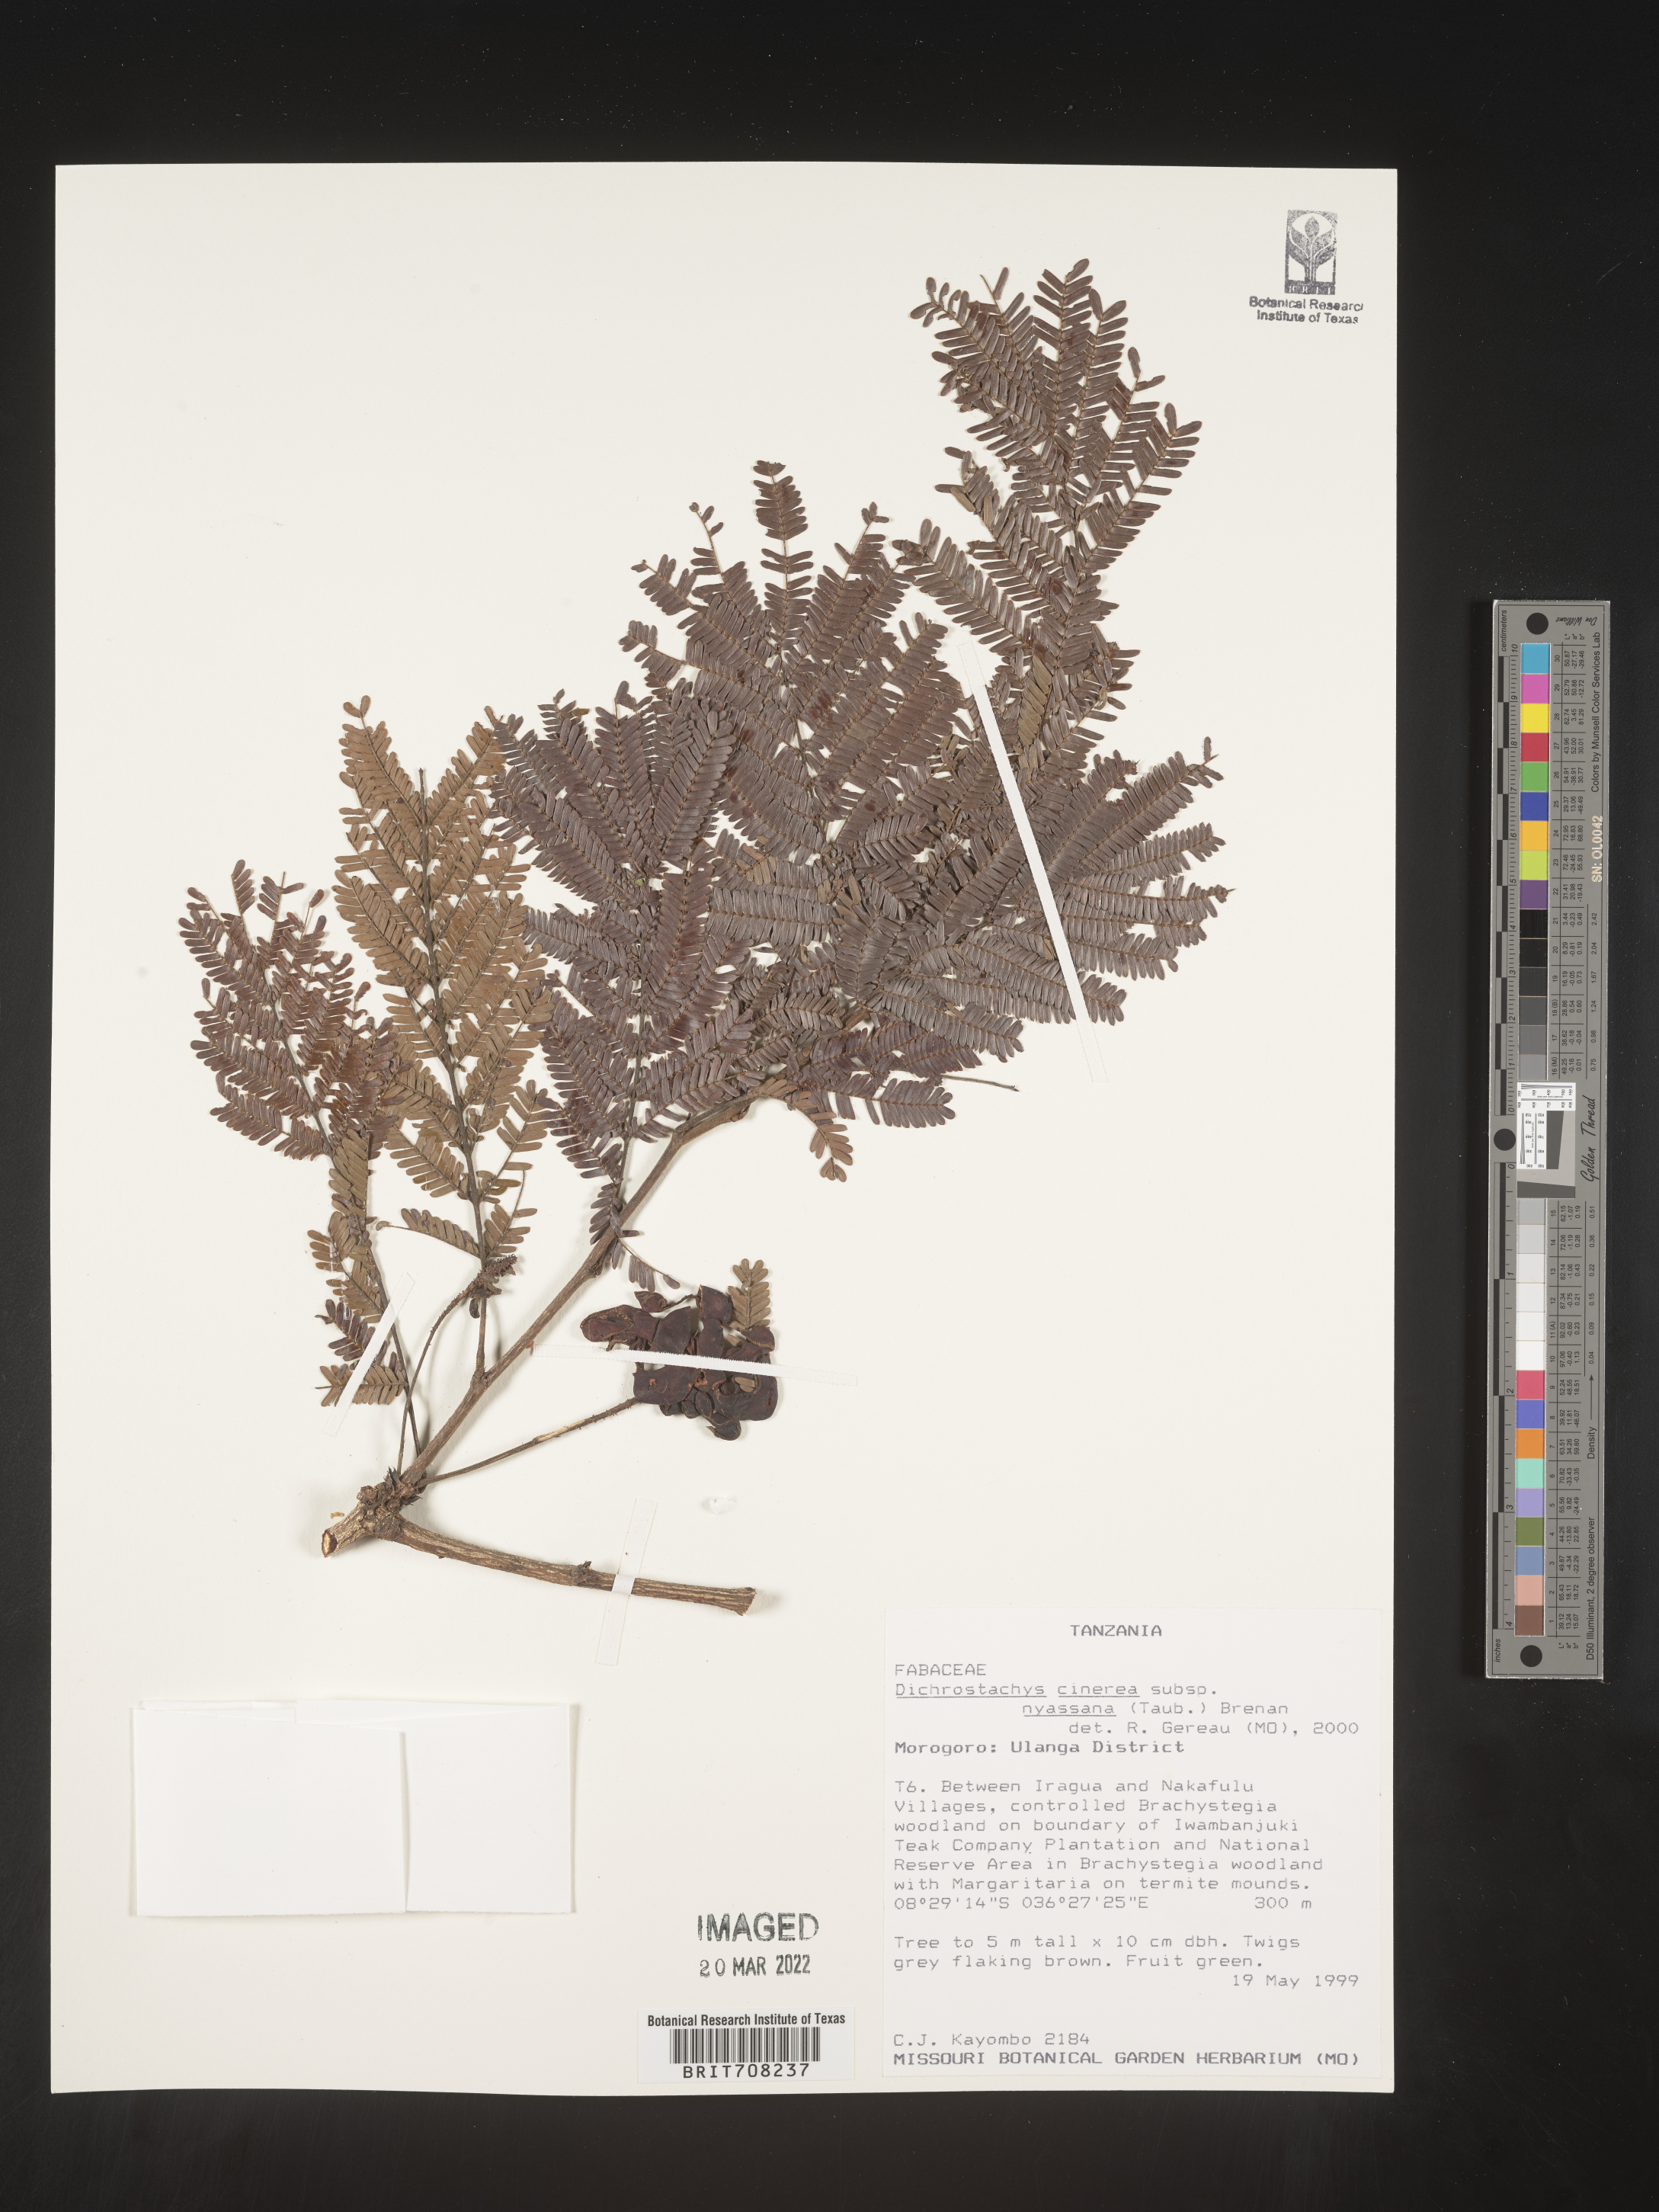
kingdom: Plantae
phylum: Tracheophyta
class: Magnoliopsida
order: Fabales
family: Fabaceae
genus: Dichrostachys
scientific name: Dichrostachys cinerea
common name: Sicklebush
